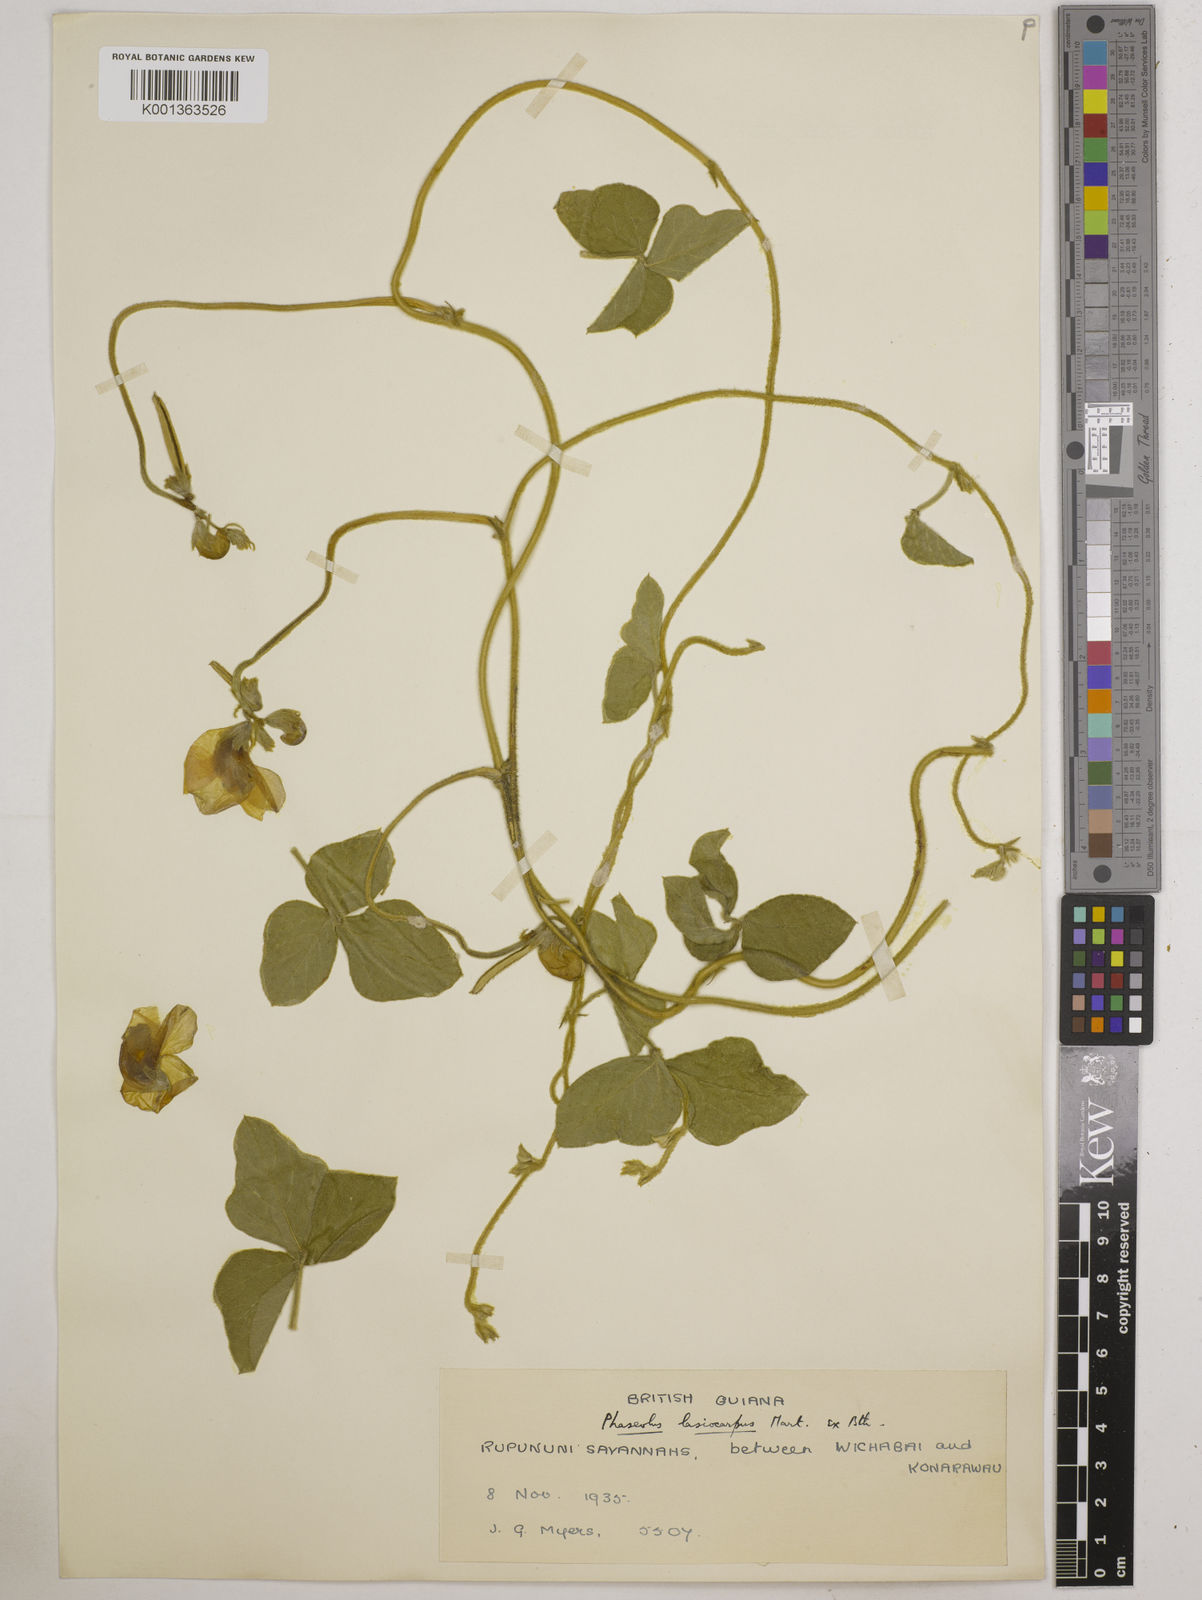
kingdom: Plantae
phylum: Tracheophyta
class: Magnoliopsida
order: Fabales
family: Fabaceae
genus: Vigna
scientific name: Vigna lasiocarpa
